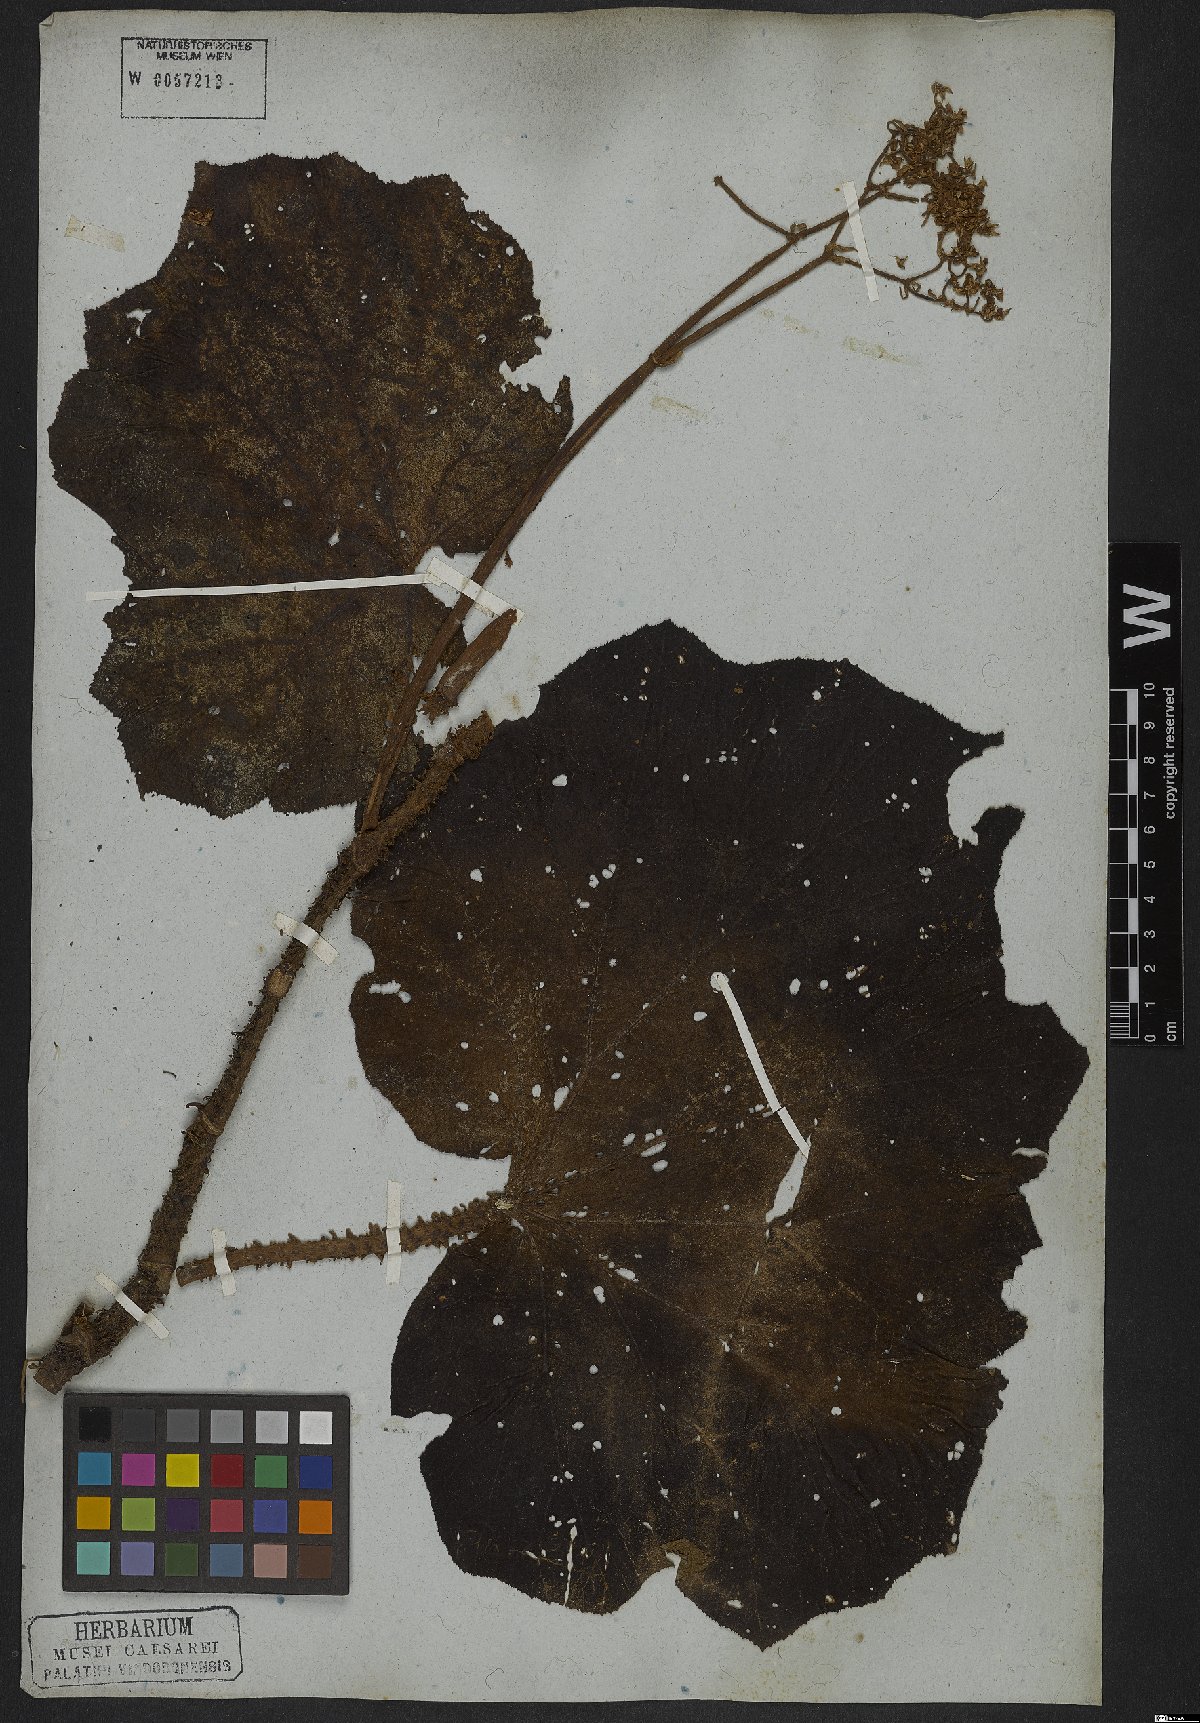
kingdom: Plantae
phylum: Tracheophyta
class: Magnoliopsida
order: Cucurbitales
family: Begoniaceae
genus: Begonia
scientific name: Begonia paleata
